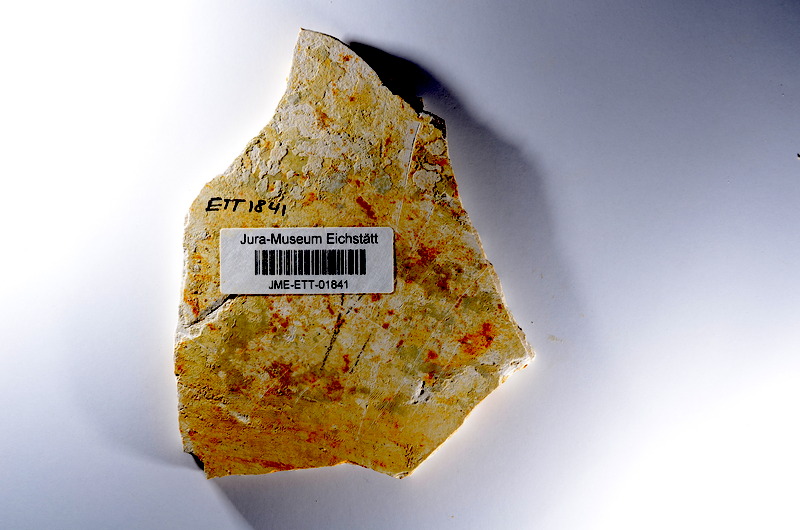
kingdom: Animalia
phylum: Chordata
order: Salmoniformes
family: Orthogonikleithridae
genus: Orthogonikleithrus
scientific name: Orthogonikleithrus hoelli
